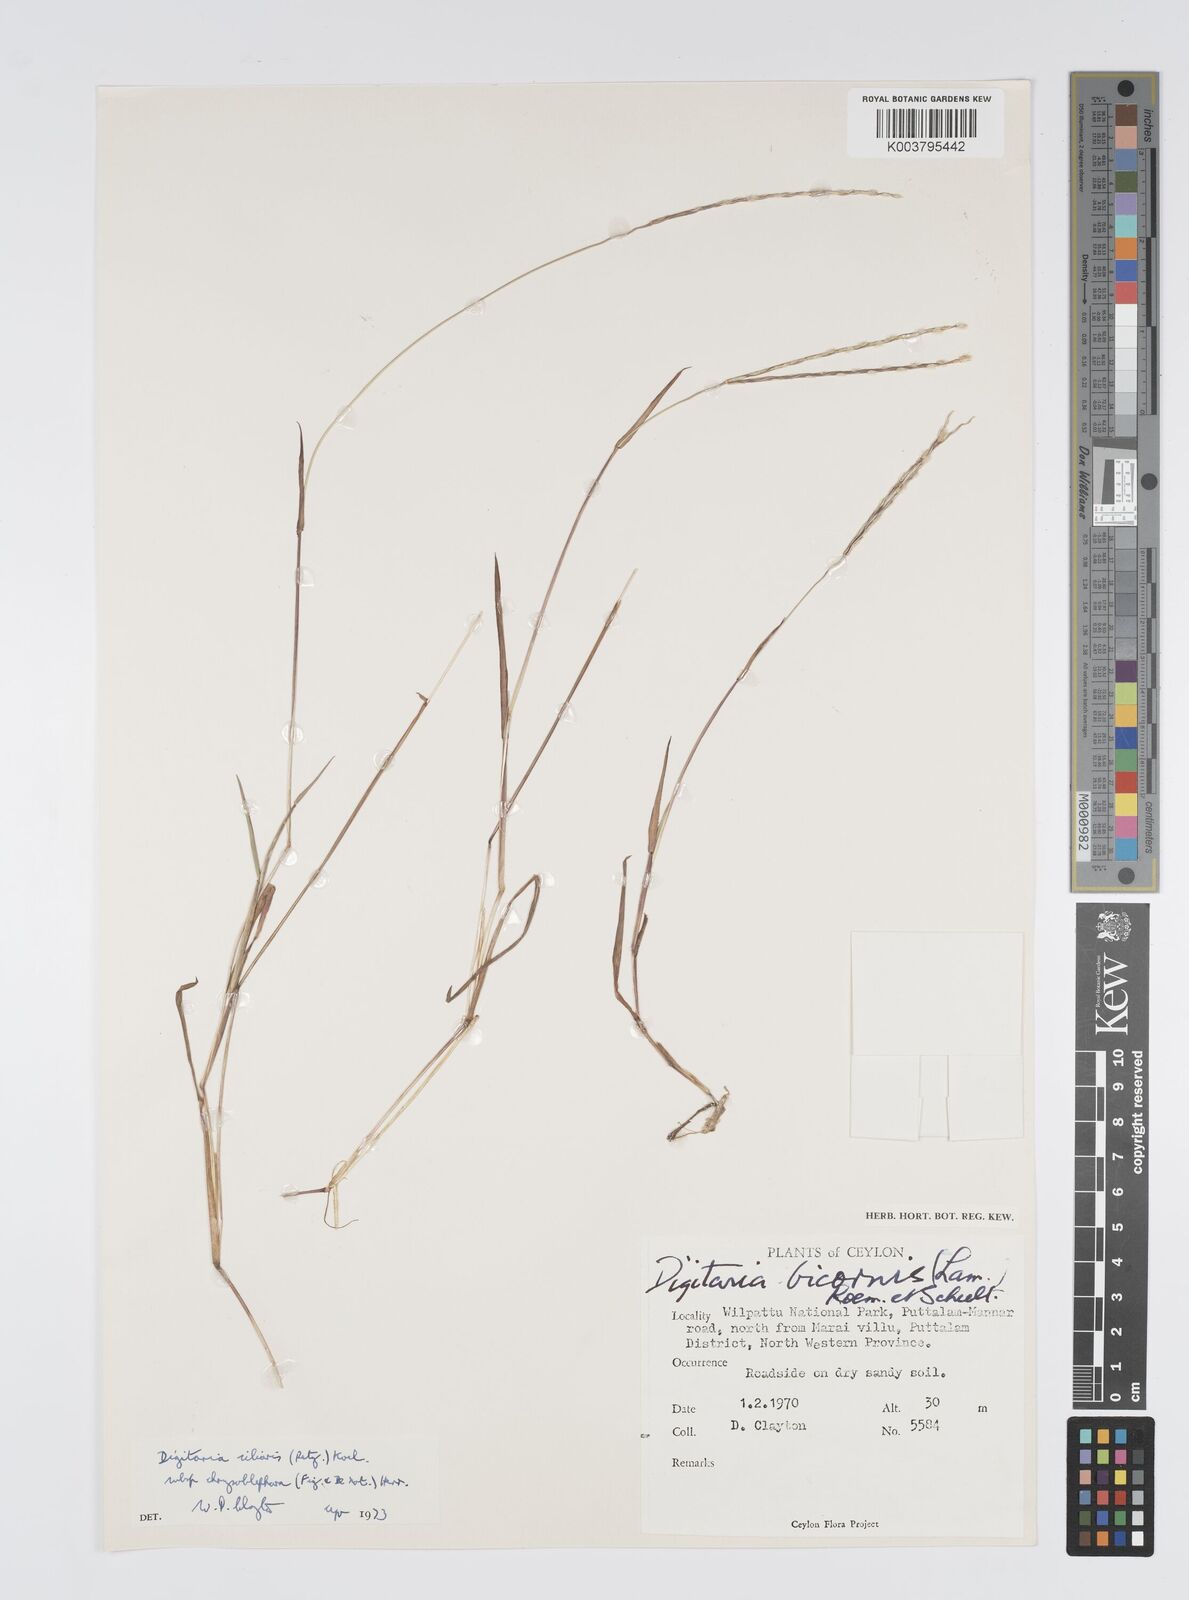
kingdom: Plantae
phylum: Tracheophyta
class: Liliopsida
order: Poales
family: Poaceae
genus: Digitaria
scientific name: Digitaria bicornis
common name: Asian crabgrass
